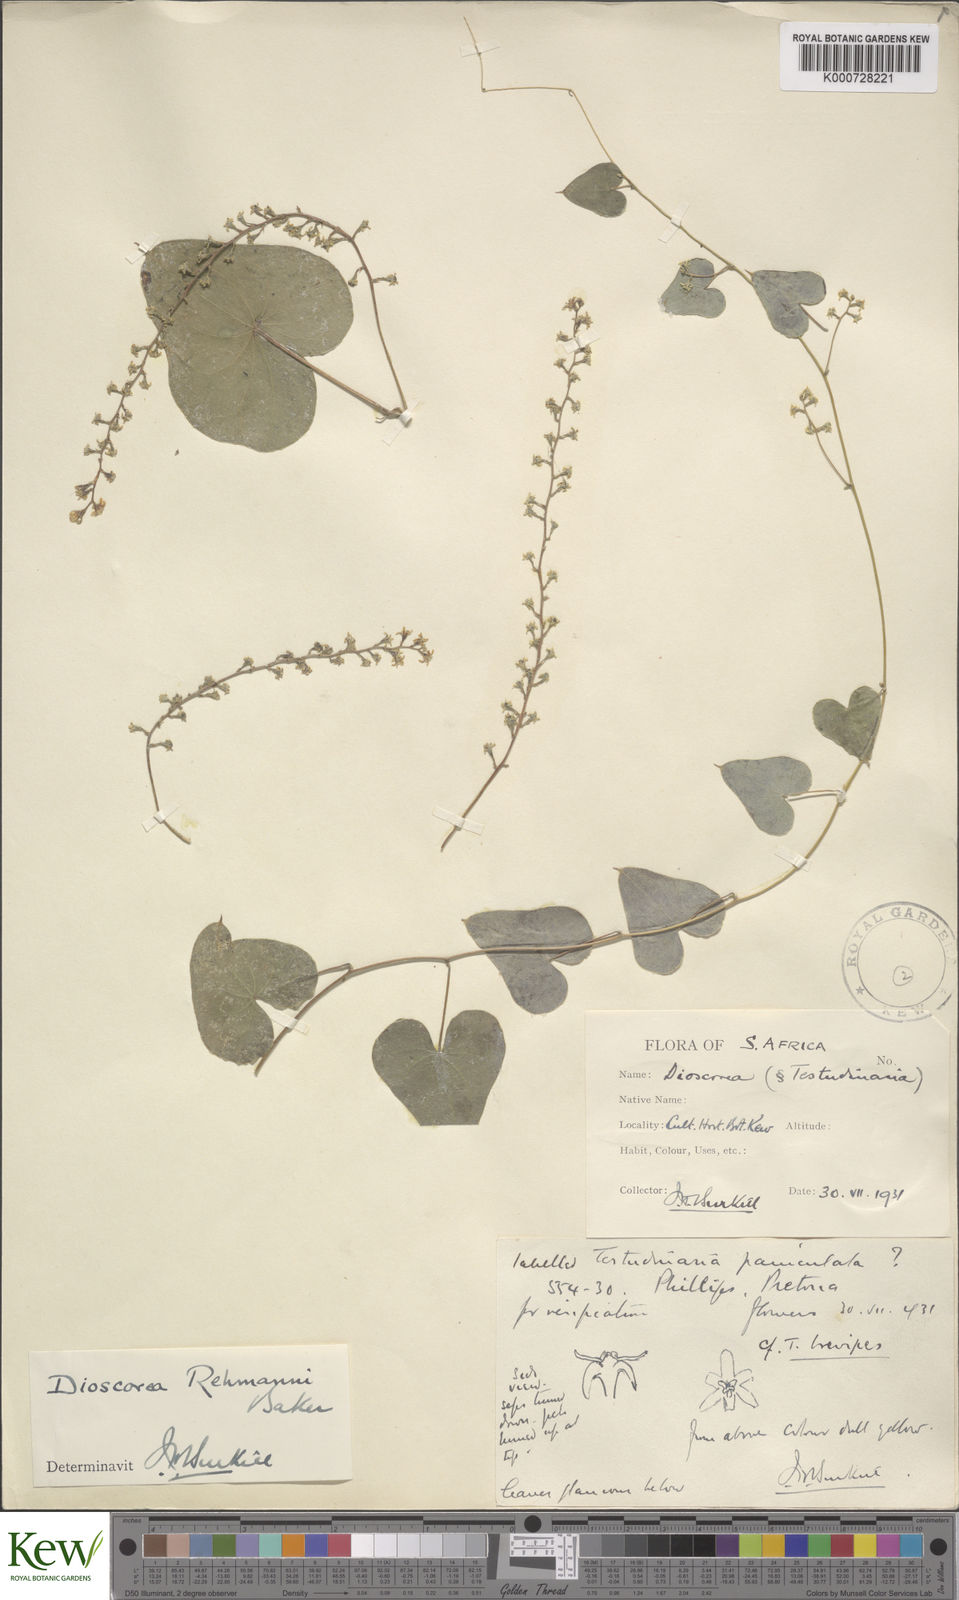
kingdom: Plantae
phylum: Tracheophyta
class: Liliopsida
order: Dioscoreales
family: Dioscoreaceae
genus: Dioscorea
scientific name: Dioscorea sylvatica
